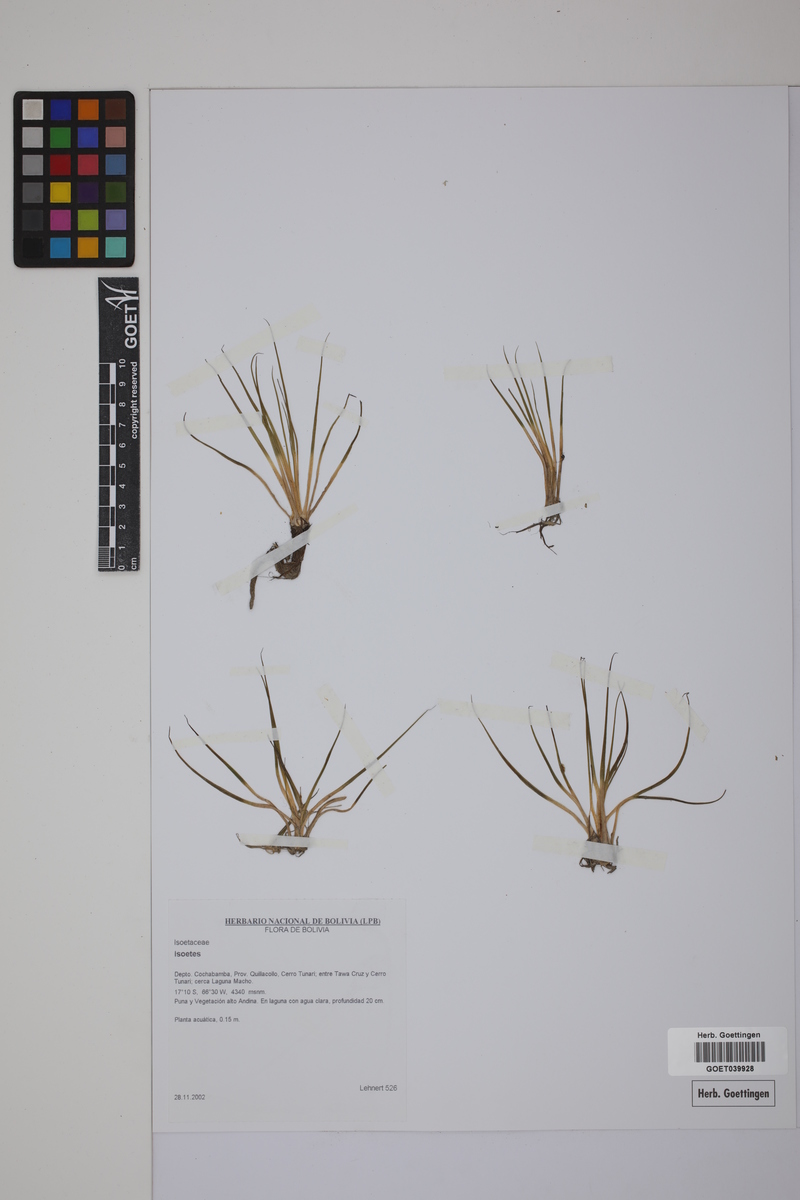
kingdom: Plantae
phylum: Tracheophyta
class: Lycopodiopsida
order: Isoetales
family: Isoetaceae
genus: Isoetes
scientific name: Isoetes
